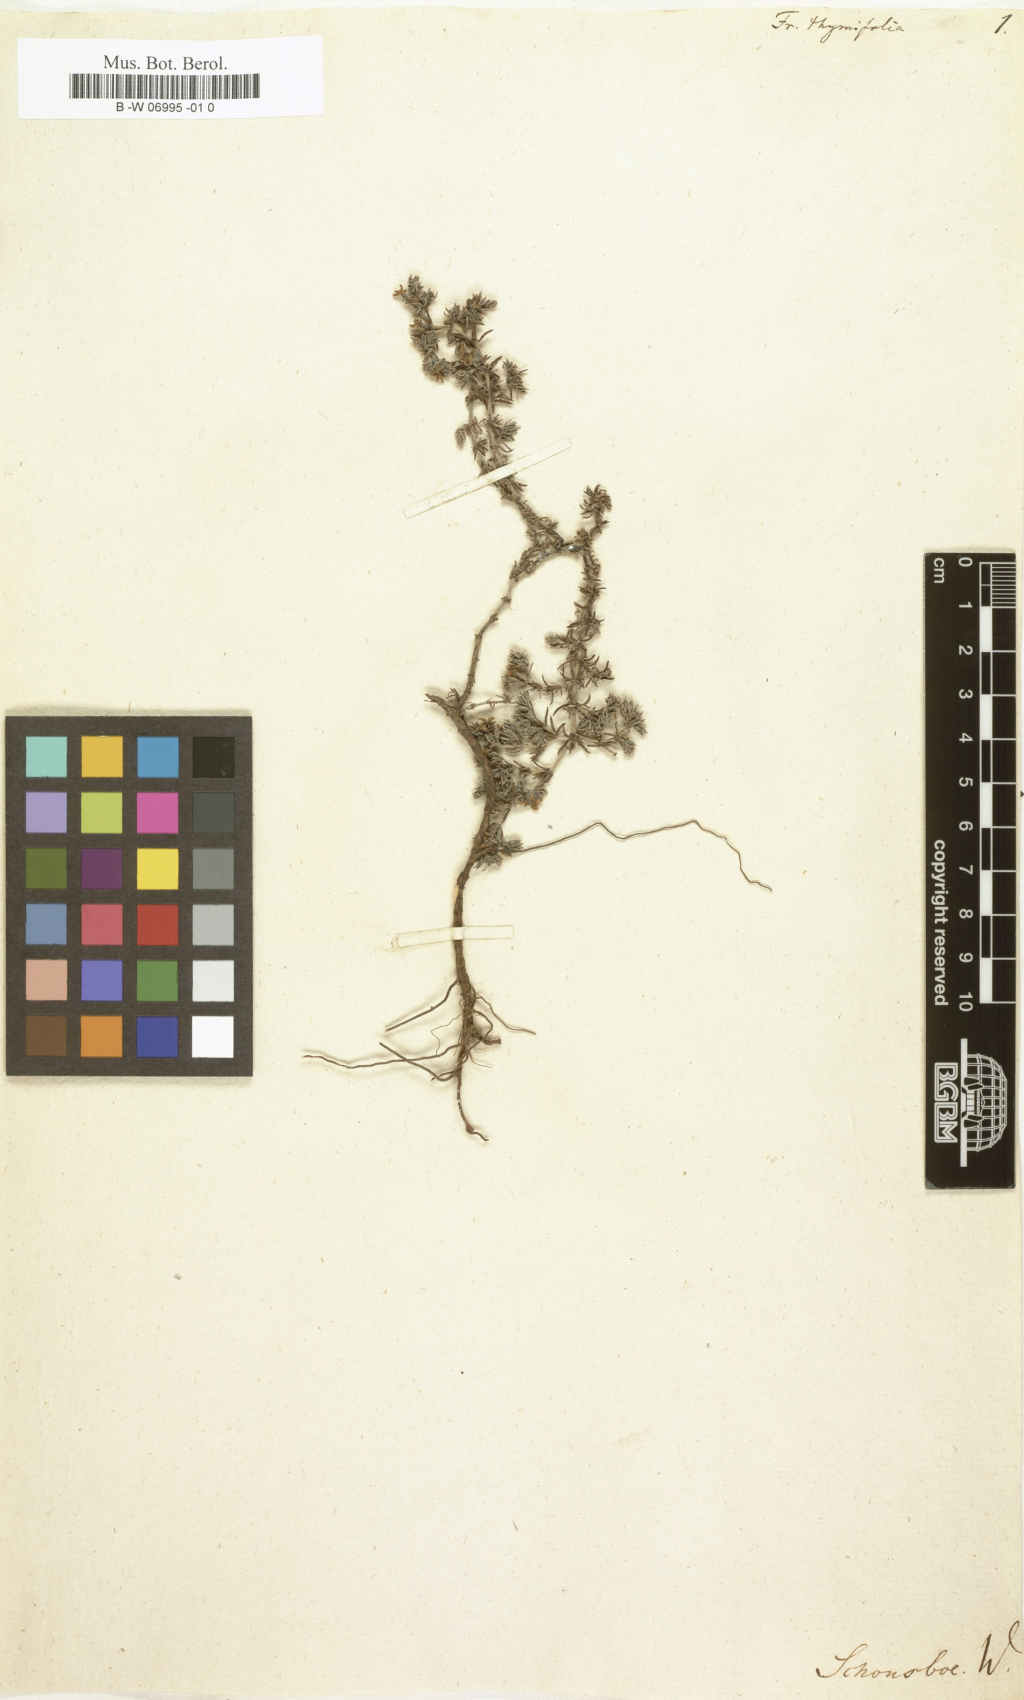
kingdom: Plantae
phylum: Tracheophyta
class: Magnoliopsida
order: Caryophyllales
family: Frankeniaceae
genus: Frankenia
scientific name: Frankenia thymifolia
